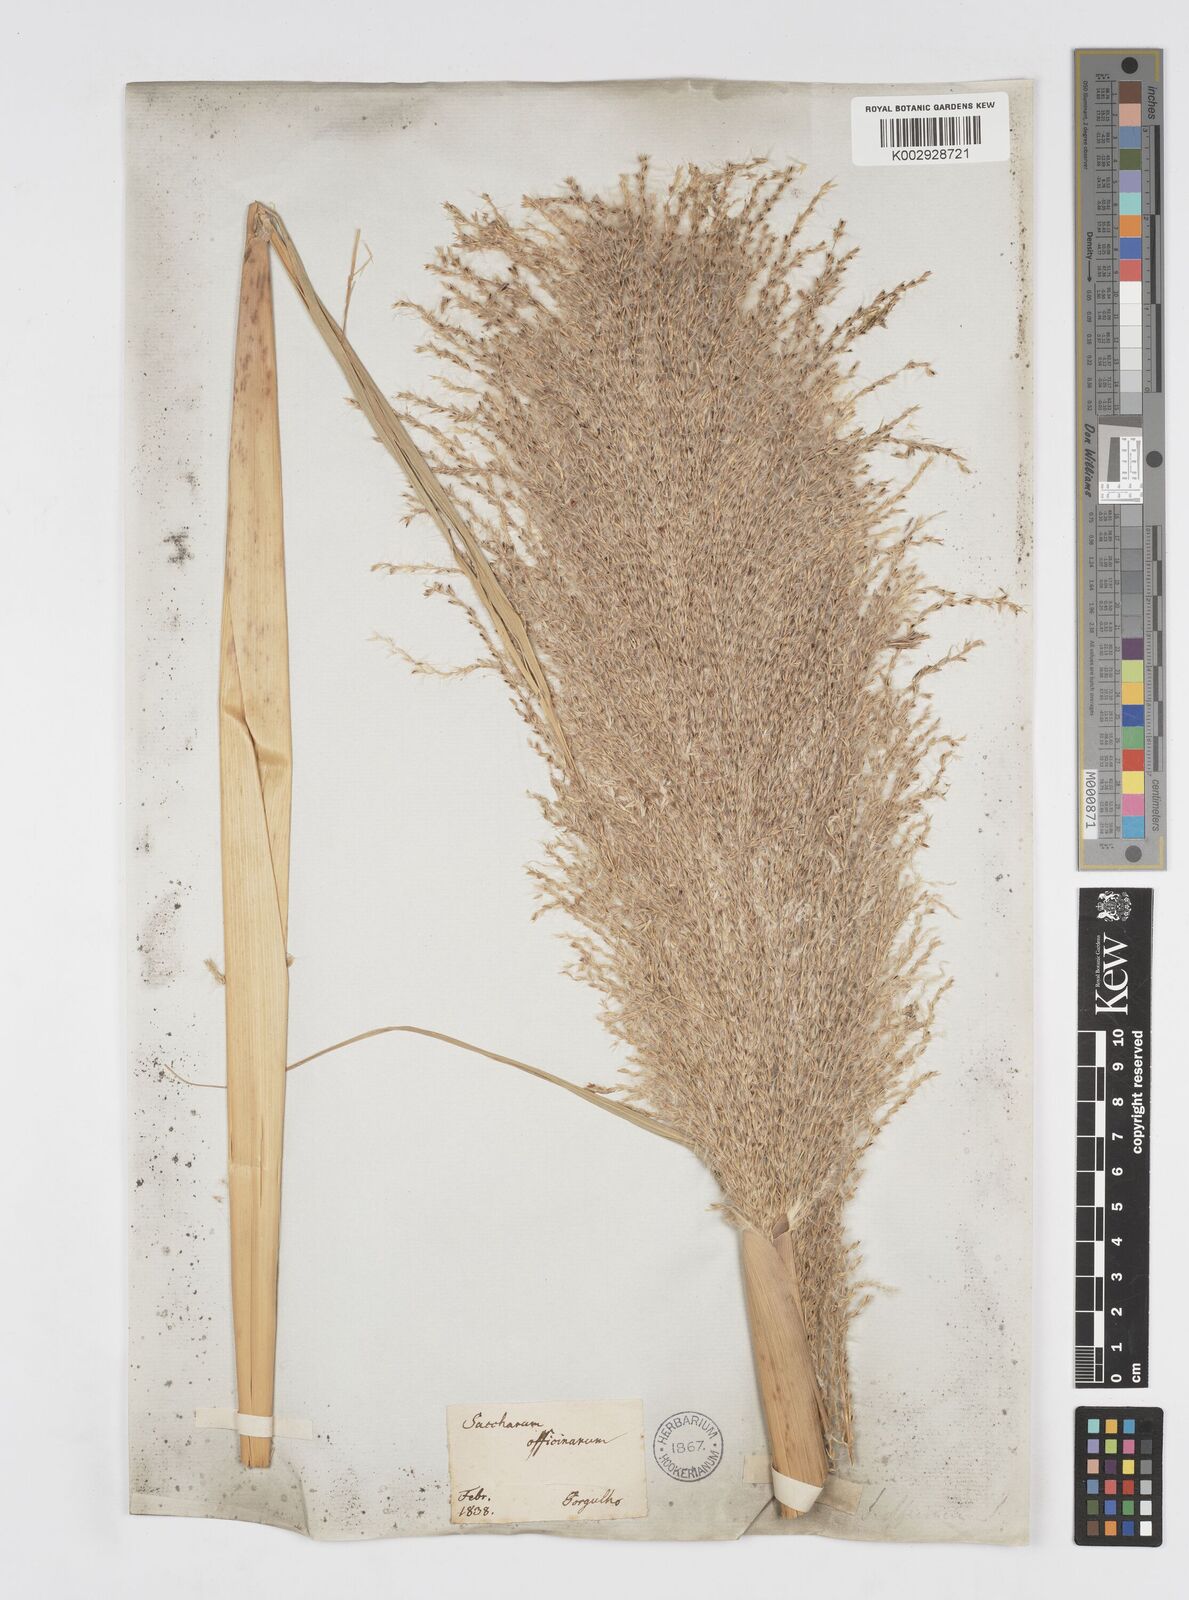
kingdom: Plantae
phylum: Tracheophyta
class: Liliopsida
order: Poales
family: Poaceae
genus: Saccharum
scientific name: Saccharum officinarum
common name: Sugarcane
